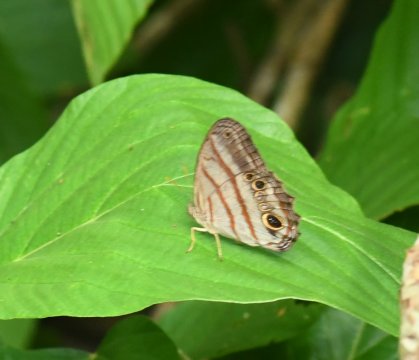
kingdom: Animalia
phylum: Arthropoda
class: Insecta
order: Lepidoptera
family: Nymphalidae
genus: Magneuptychia
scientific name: Magneuptychia libye
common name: Blue-gray Satyr
